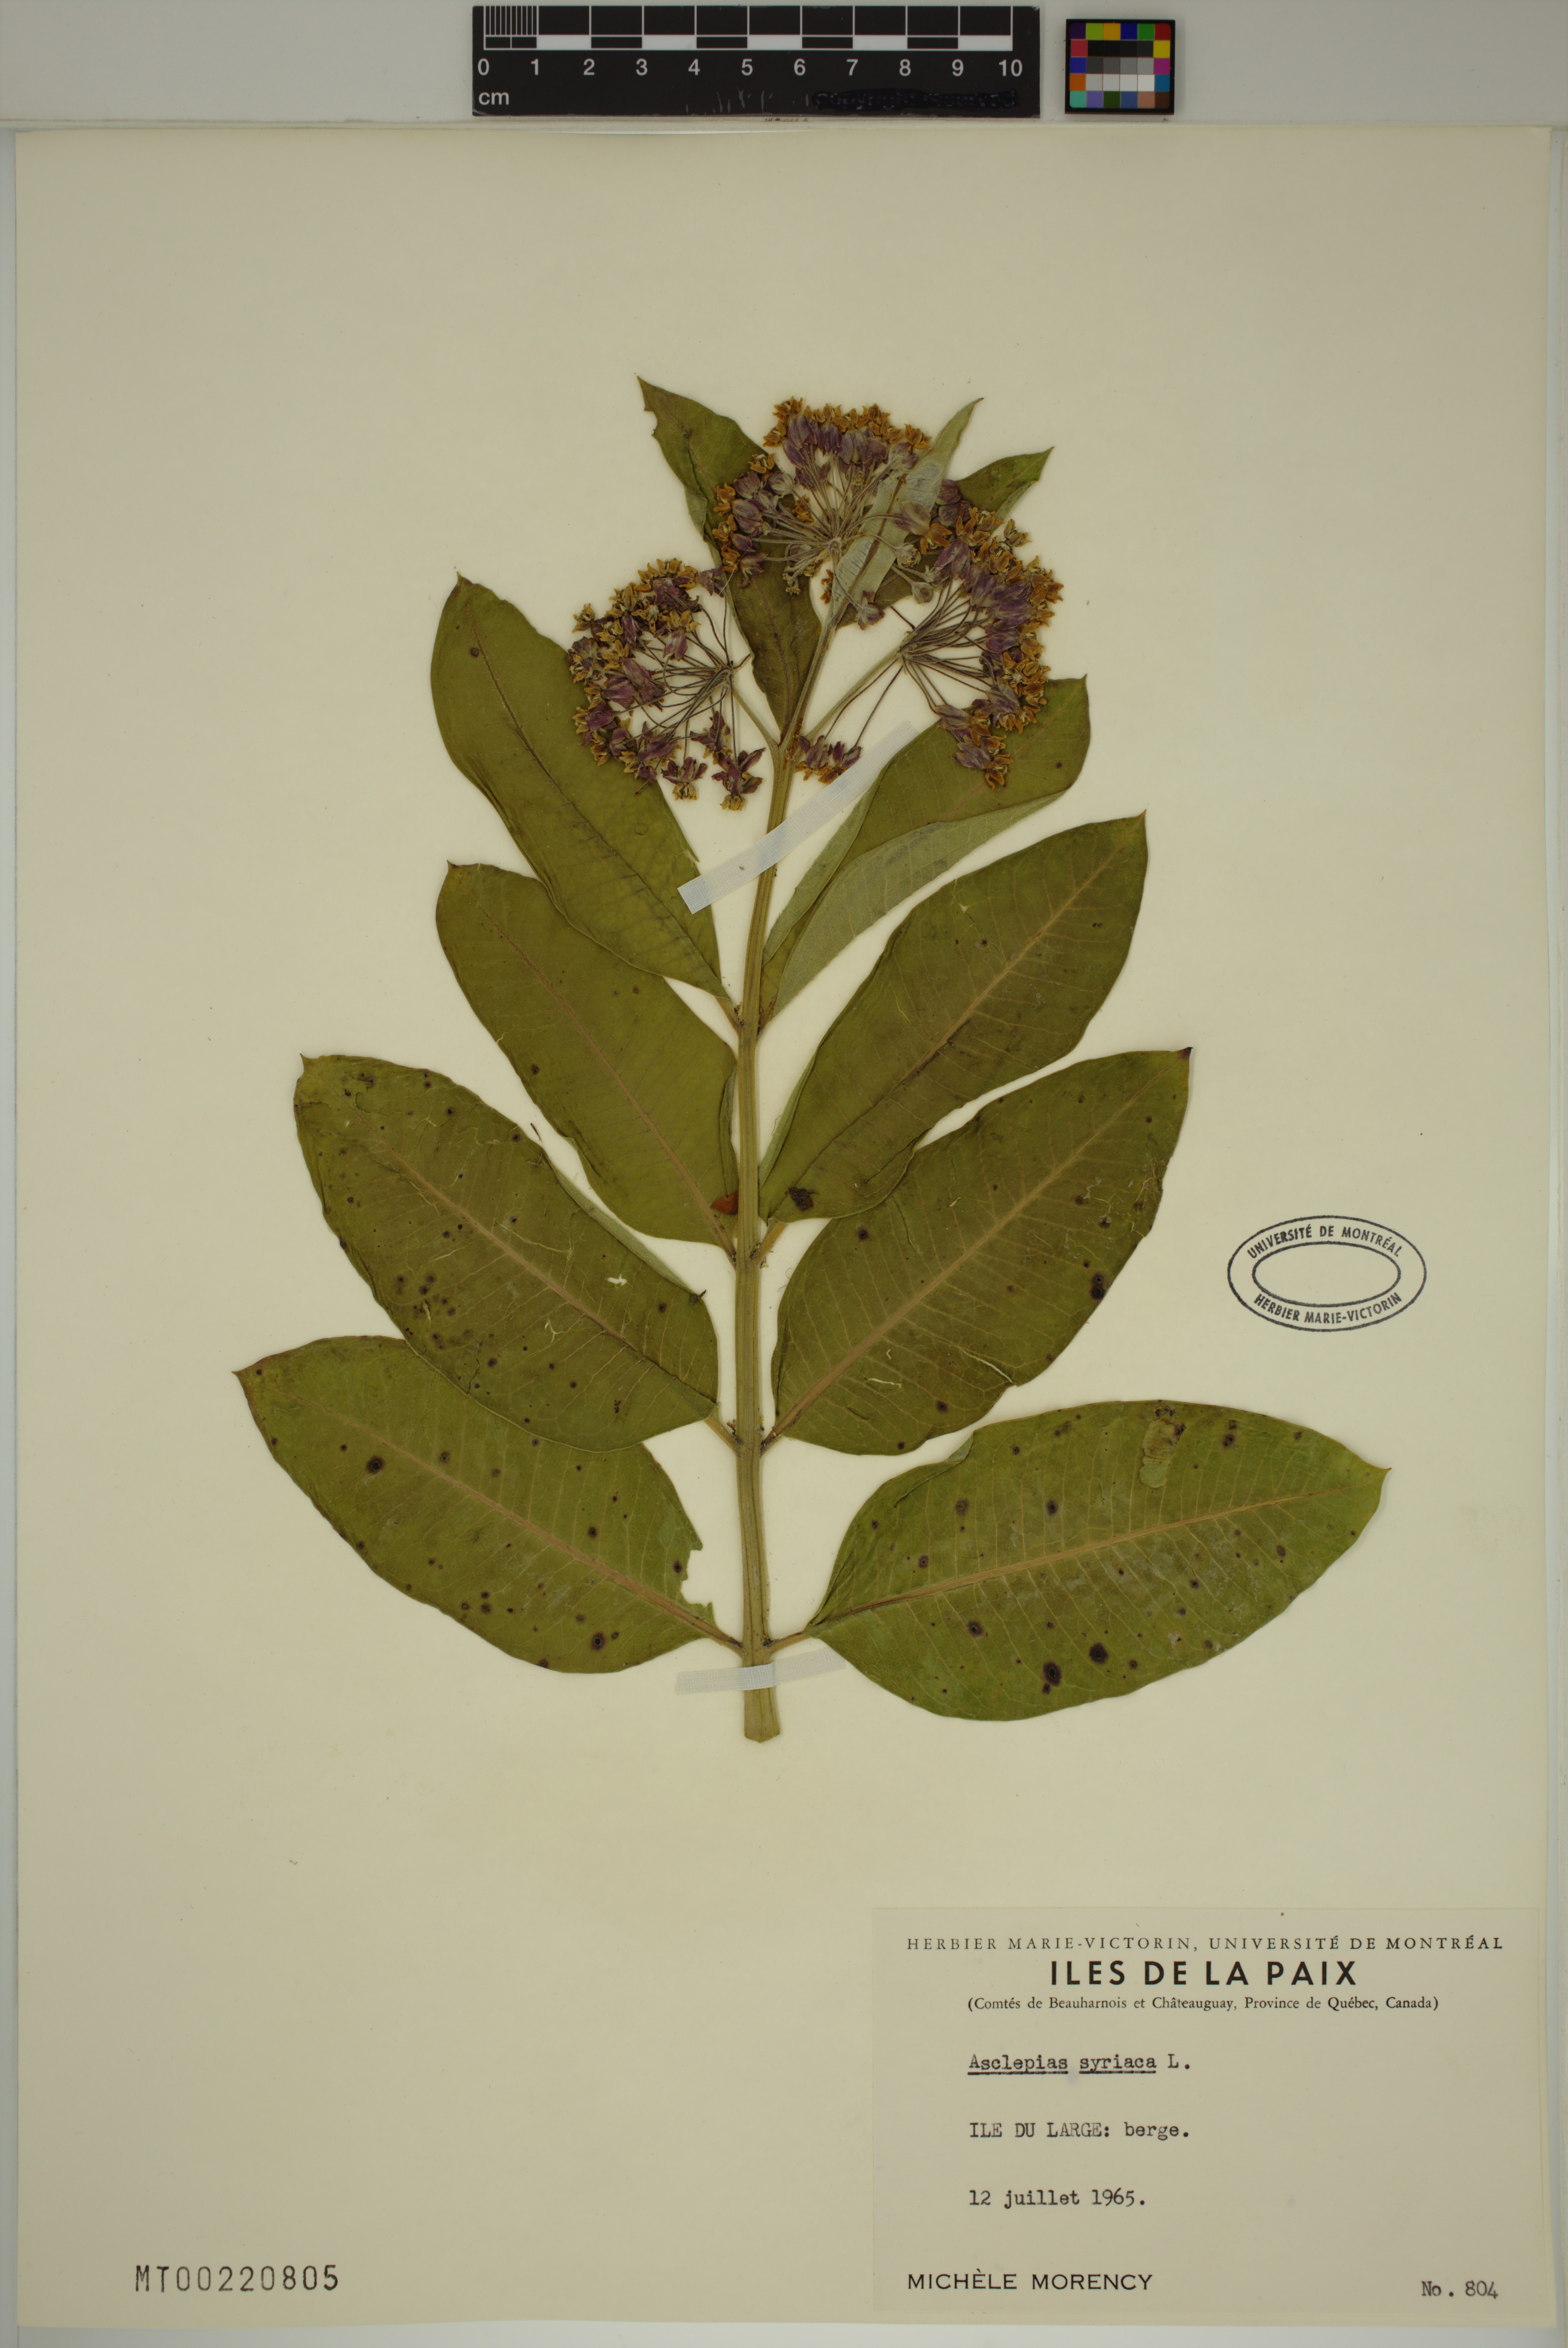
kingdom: Plantae
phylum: Tracheophyta
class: Magnoliopsida
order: Gentianales
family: Apocynaceae
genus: Asclepias
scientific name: Asclepias syriaca
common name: Common milkweed
